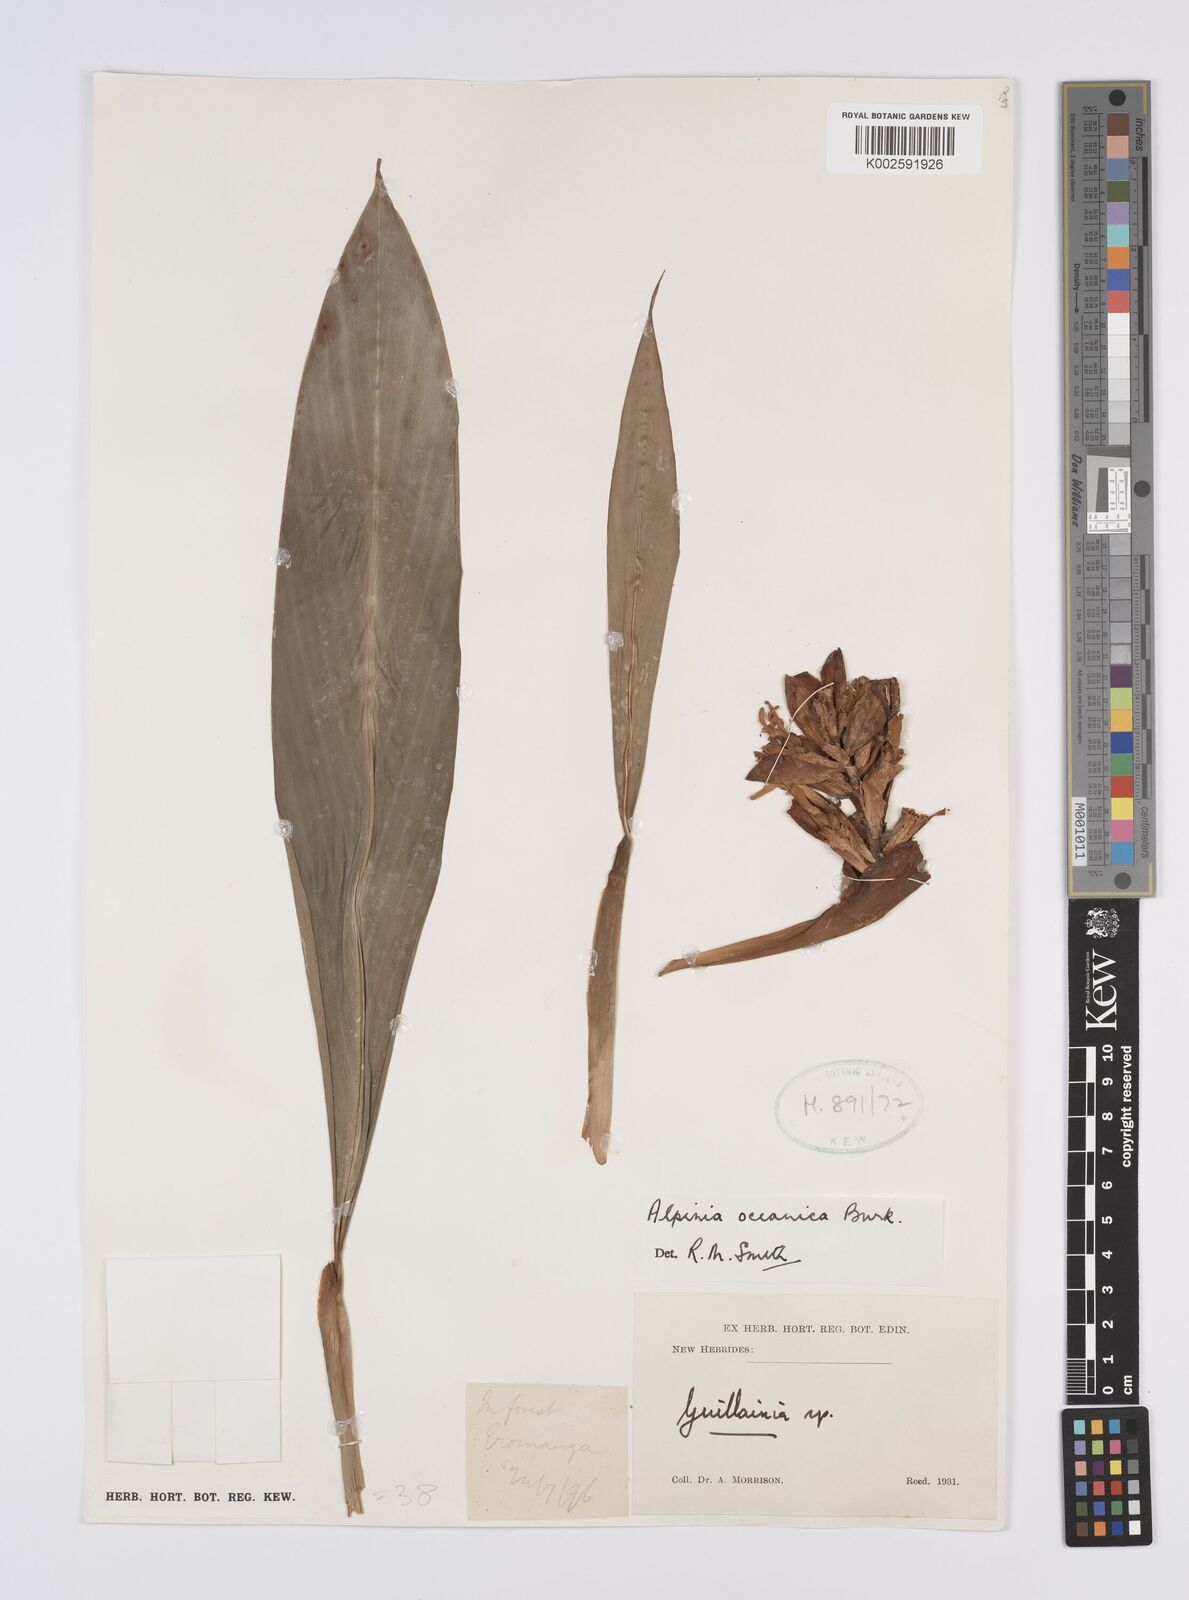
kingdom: Plantae
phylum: Tracheophyta
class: Liliopsida
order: Zingiberales
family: Zingiberaceae
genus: Alpinia
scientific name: Alpinia oceanica
